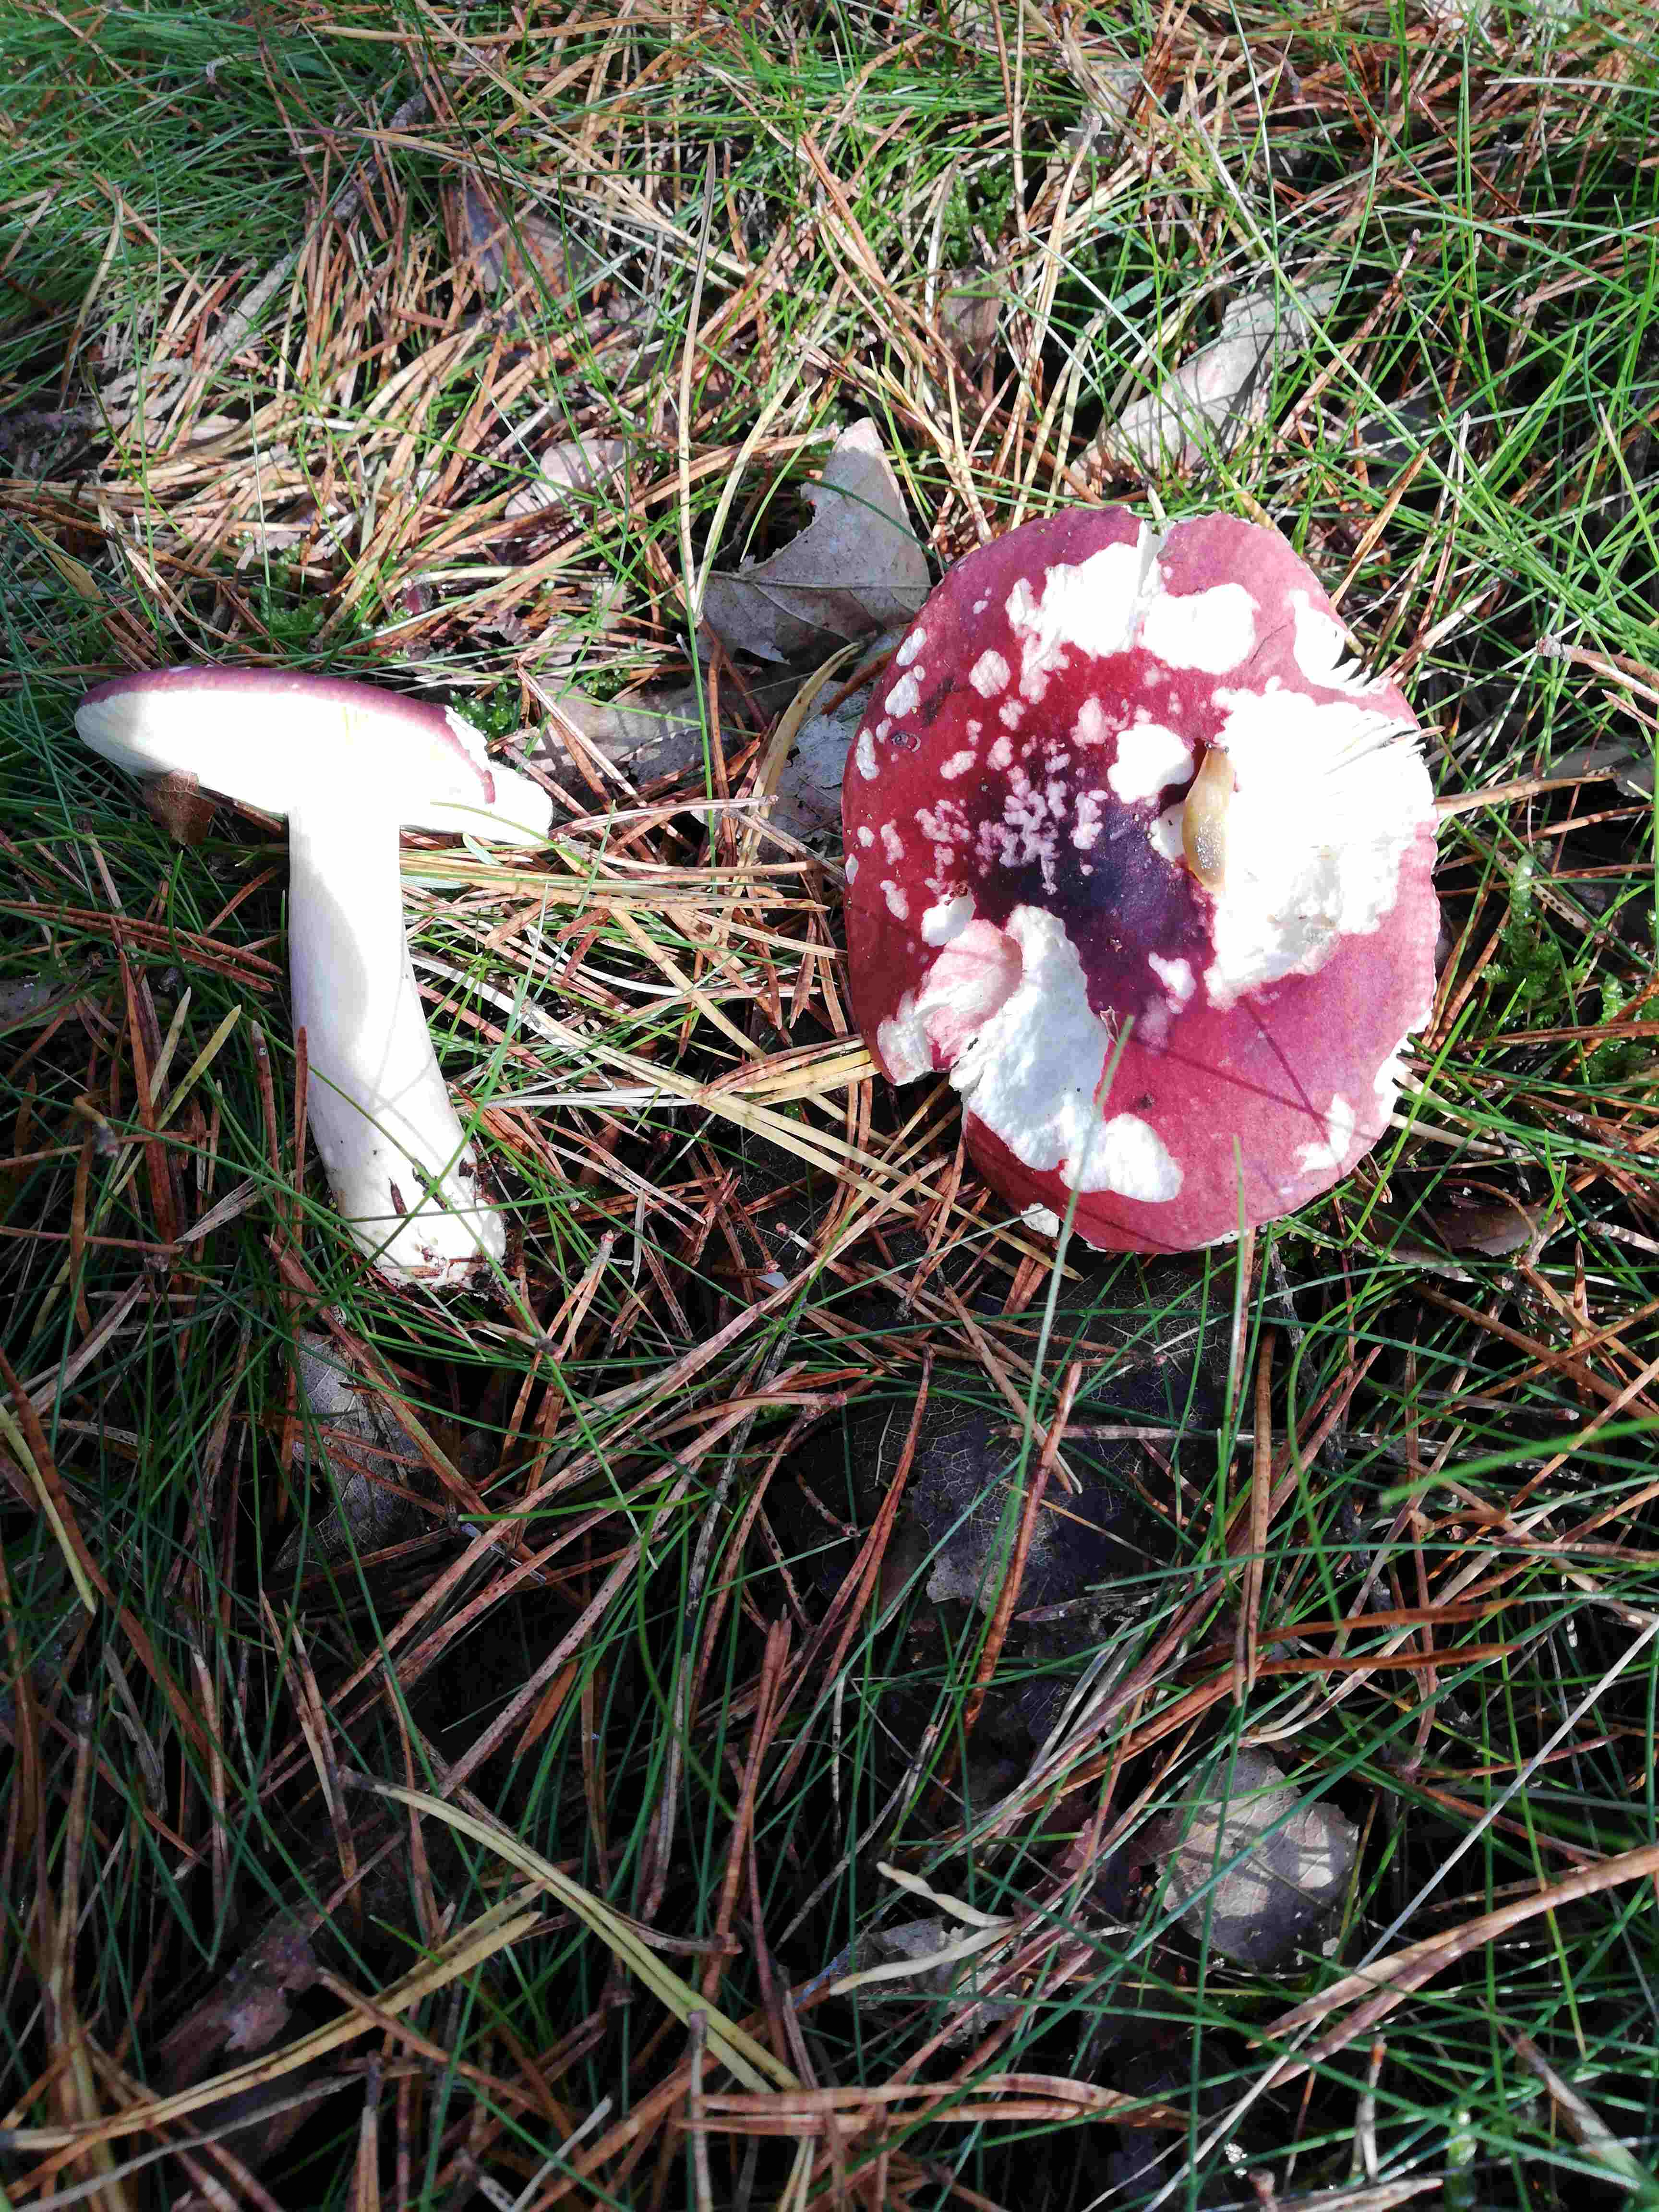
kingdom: Fungi
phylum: Basidiomycota
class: Agaricomycetes
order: Russulales
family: Russulaceae
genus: Russula
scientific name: Russula
